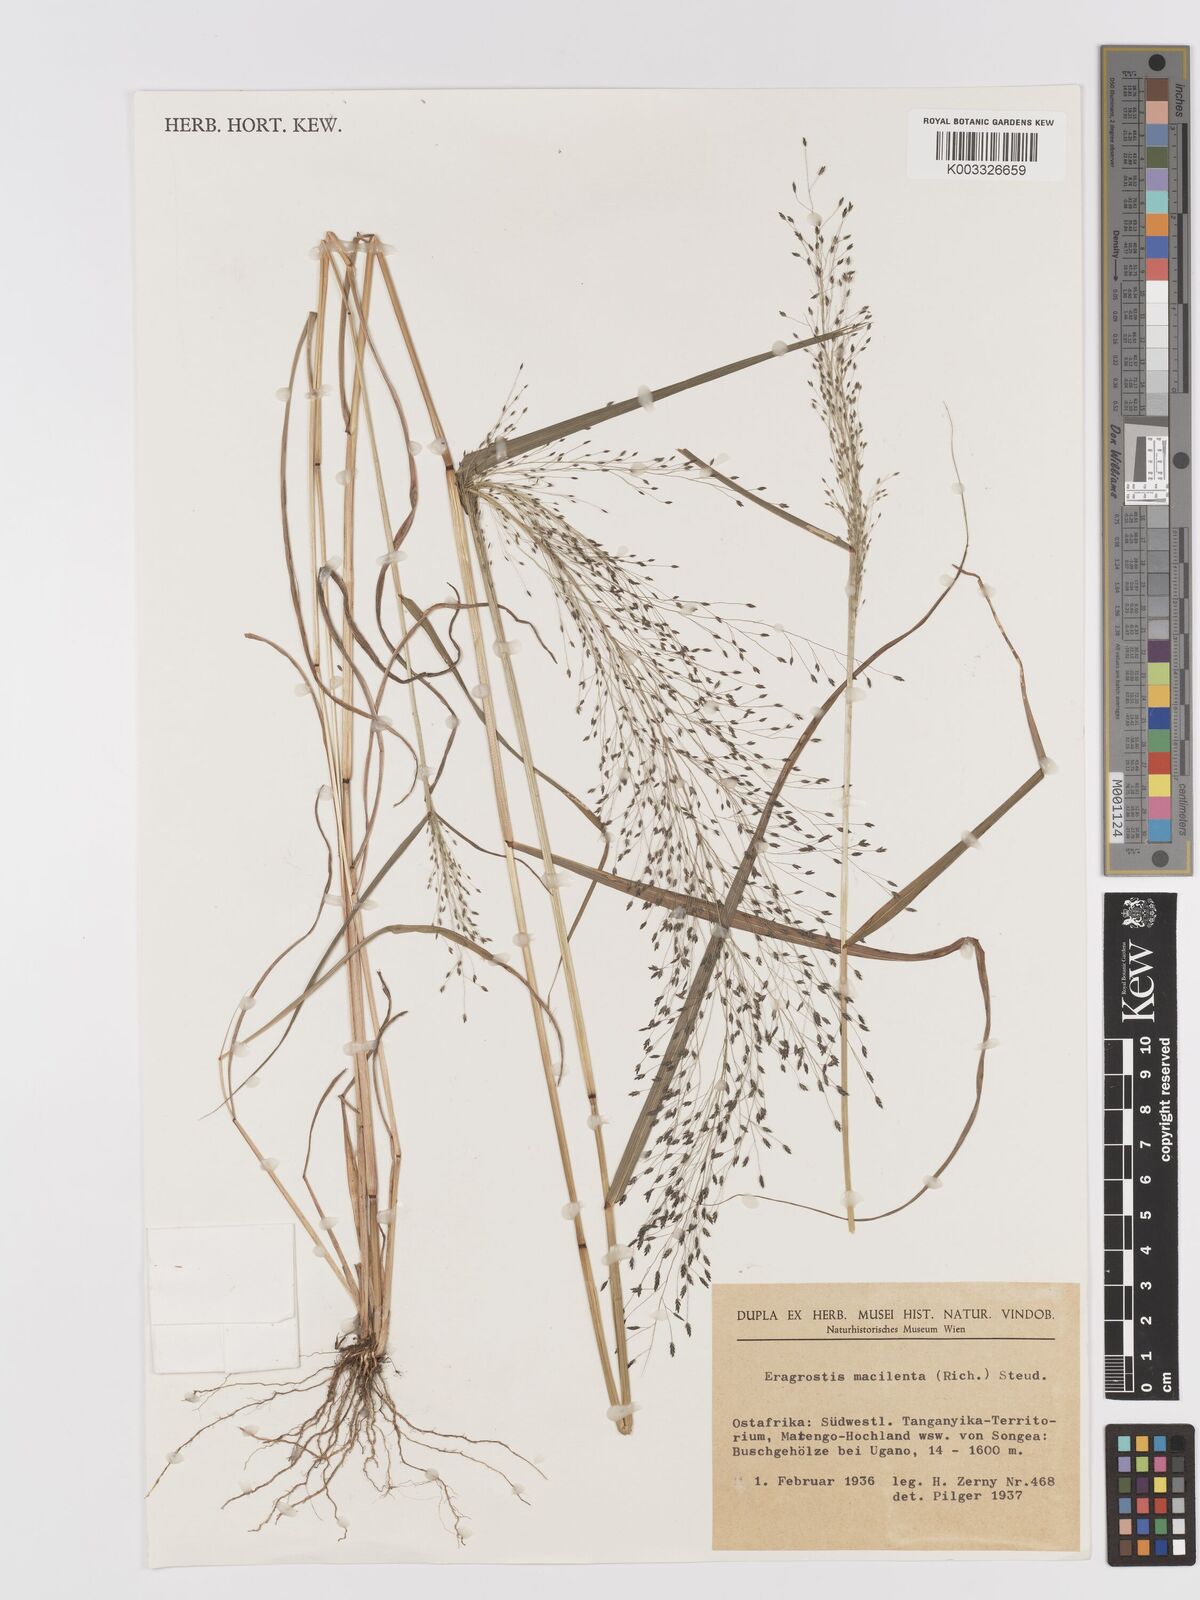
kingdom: Plantae
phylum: Tracheophyta
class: Liliopsida
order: Poales
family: Poaceae
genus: Eragrostis
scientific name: Eragrostis macilenta
